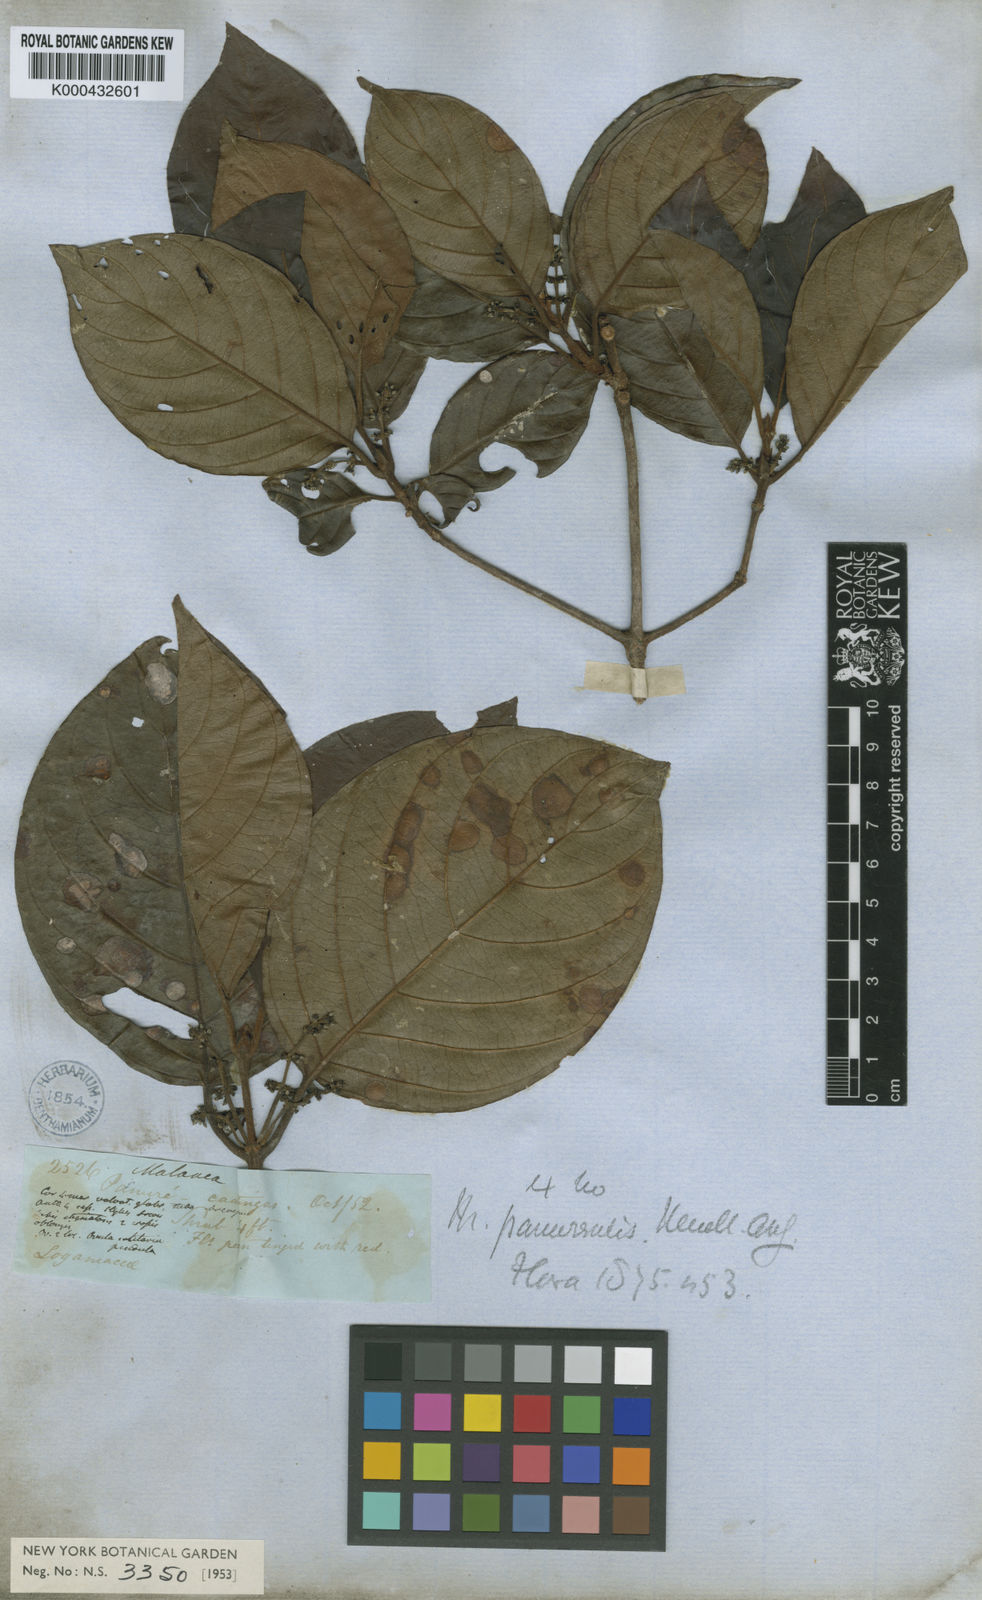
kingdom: Plantae
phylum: Tracheophyta
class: Magnoliopsida
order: Gentianales
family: Rubiaceae
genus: Malanea
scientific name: Malanea
